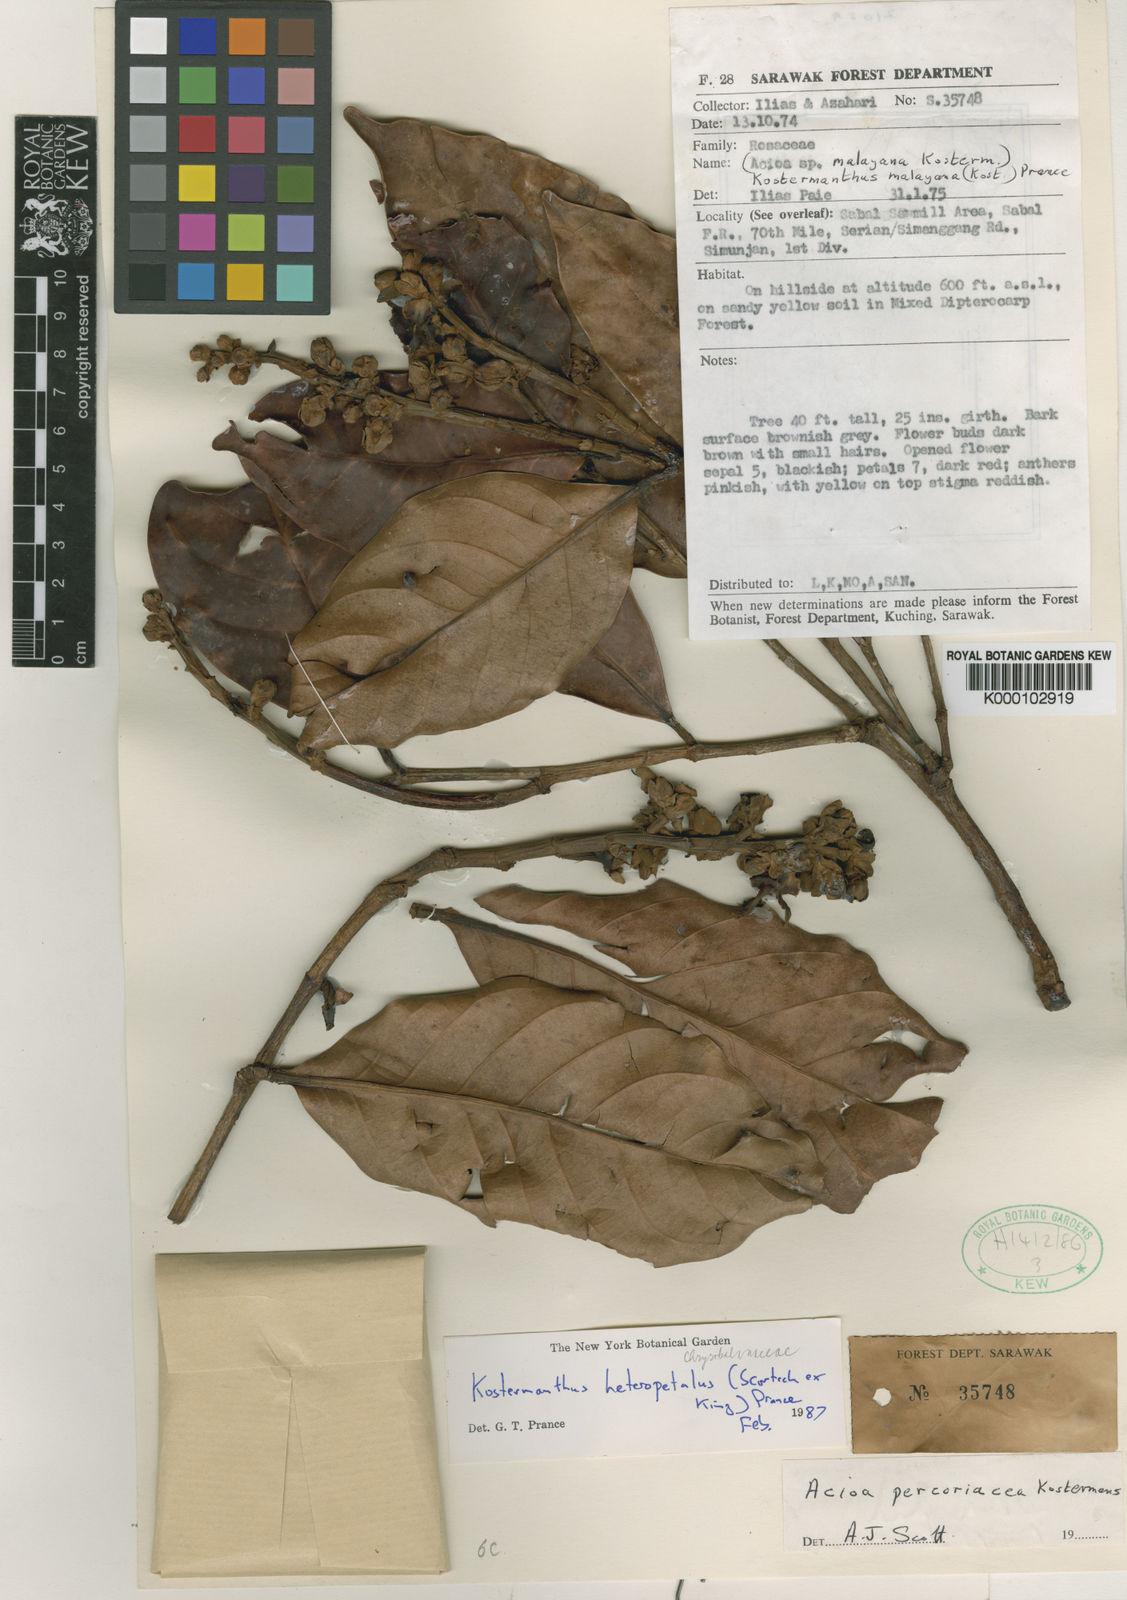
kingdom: Plantae
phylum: Tracheophyta
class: Magnoliopsida
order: Malpighiales
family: Chrysobalanaceae
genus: Kostermanthus
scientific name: Kostermanthus robustus
